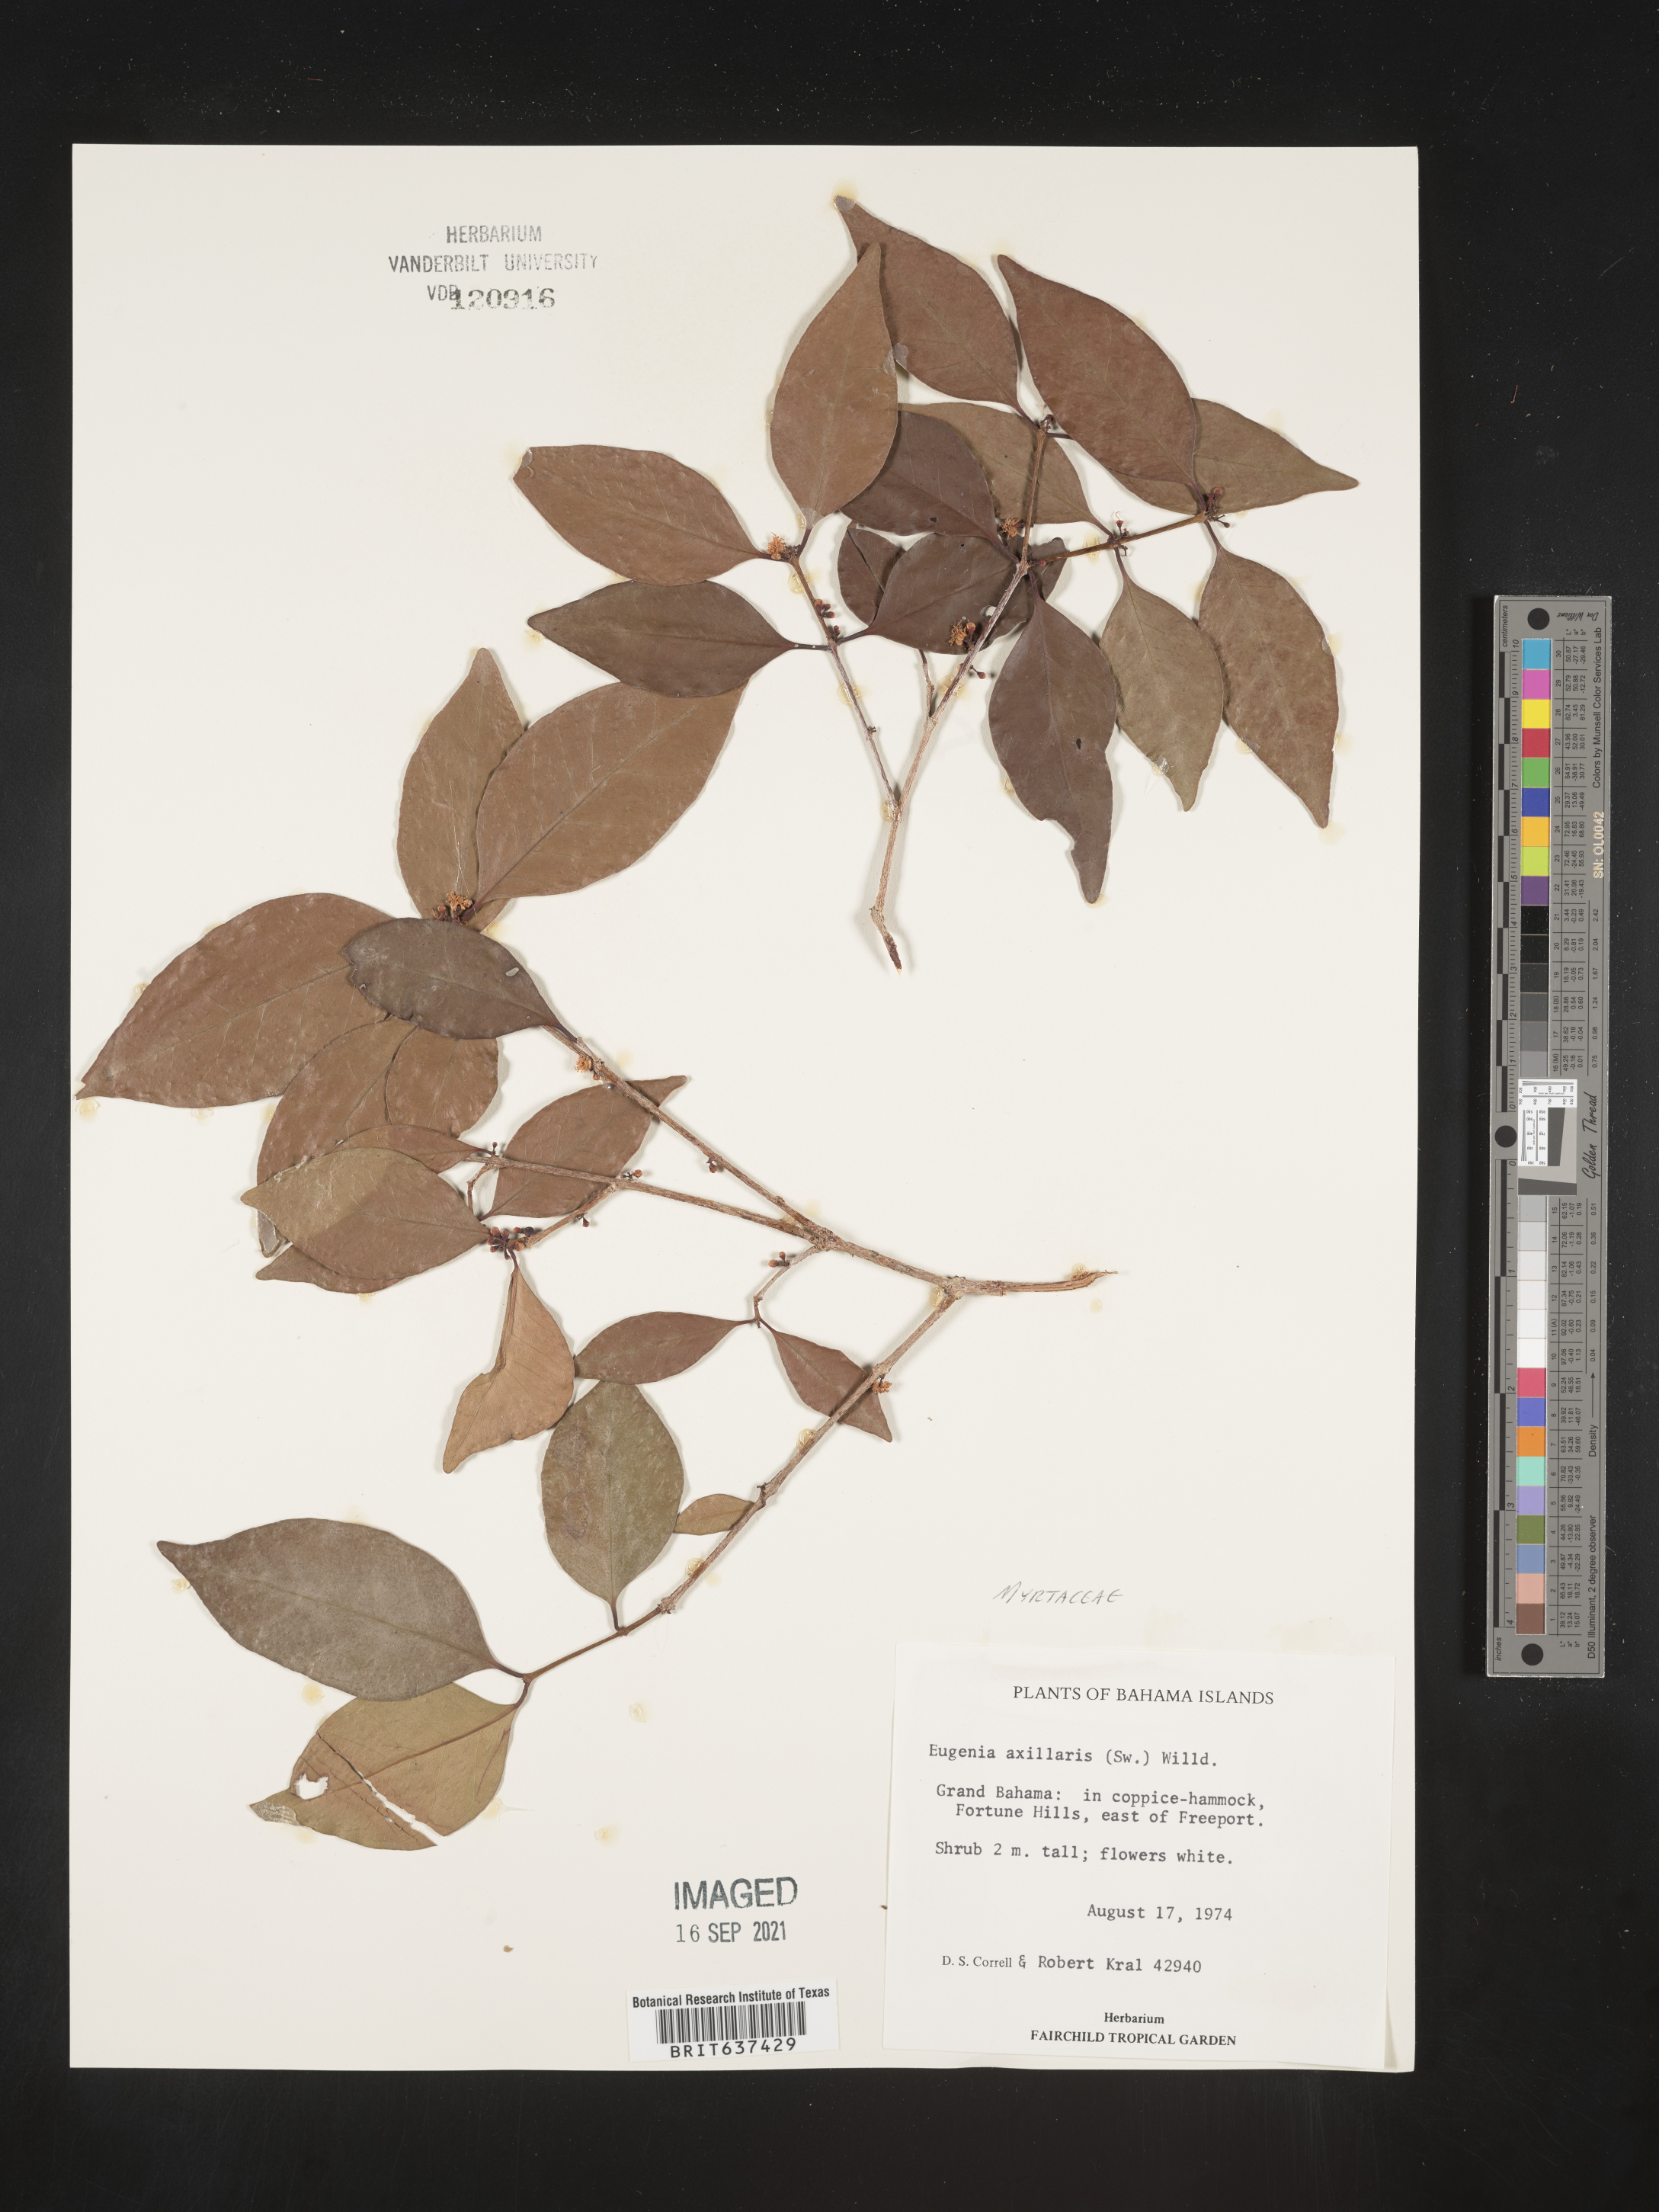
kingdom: Plantae
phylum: Tracheophyta
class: Magnoliopsida
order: Myrtales
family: Myrtaceae
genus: Eugenia
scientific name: Eugenia
